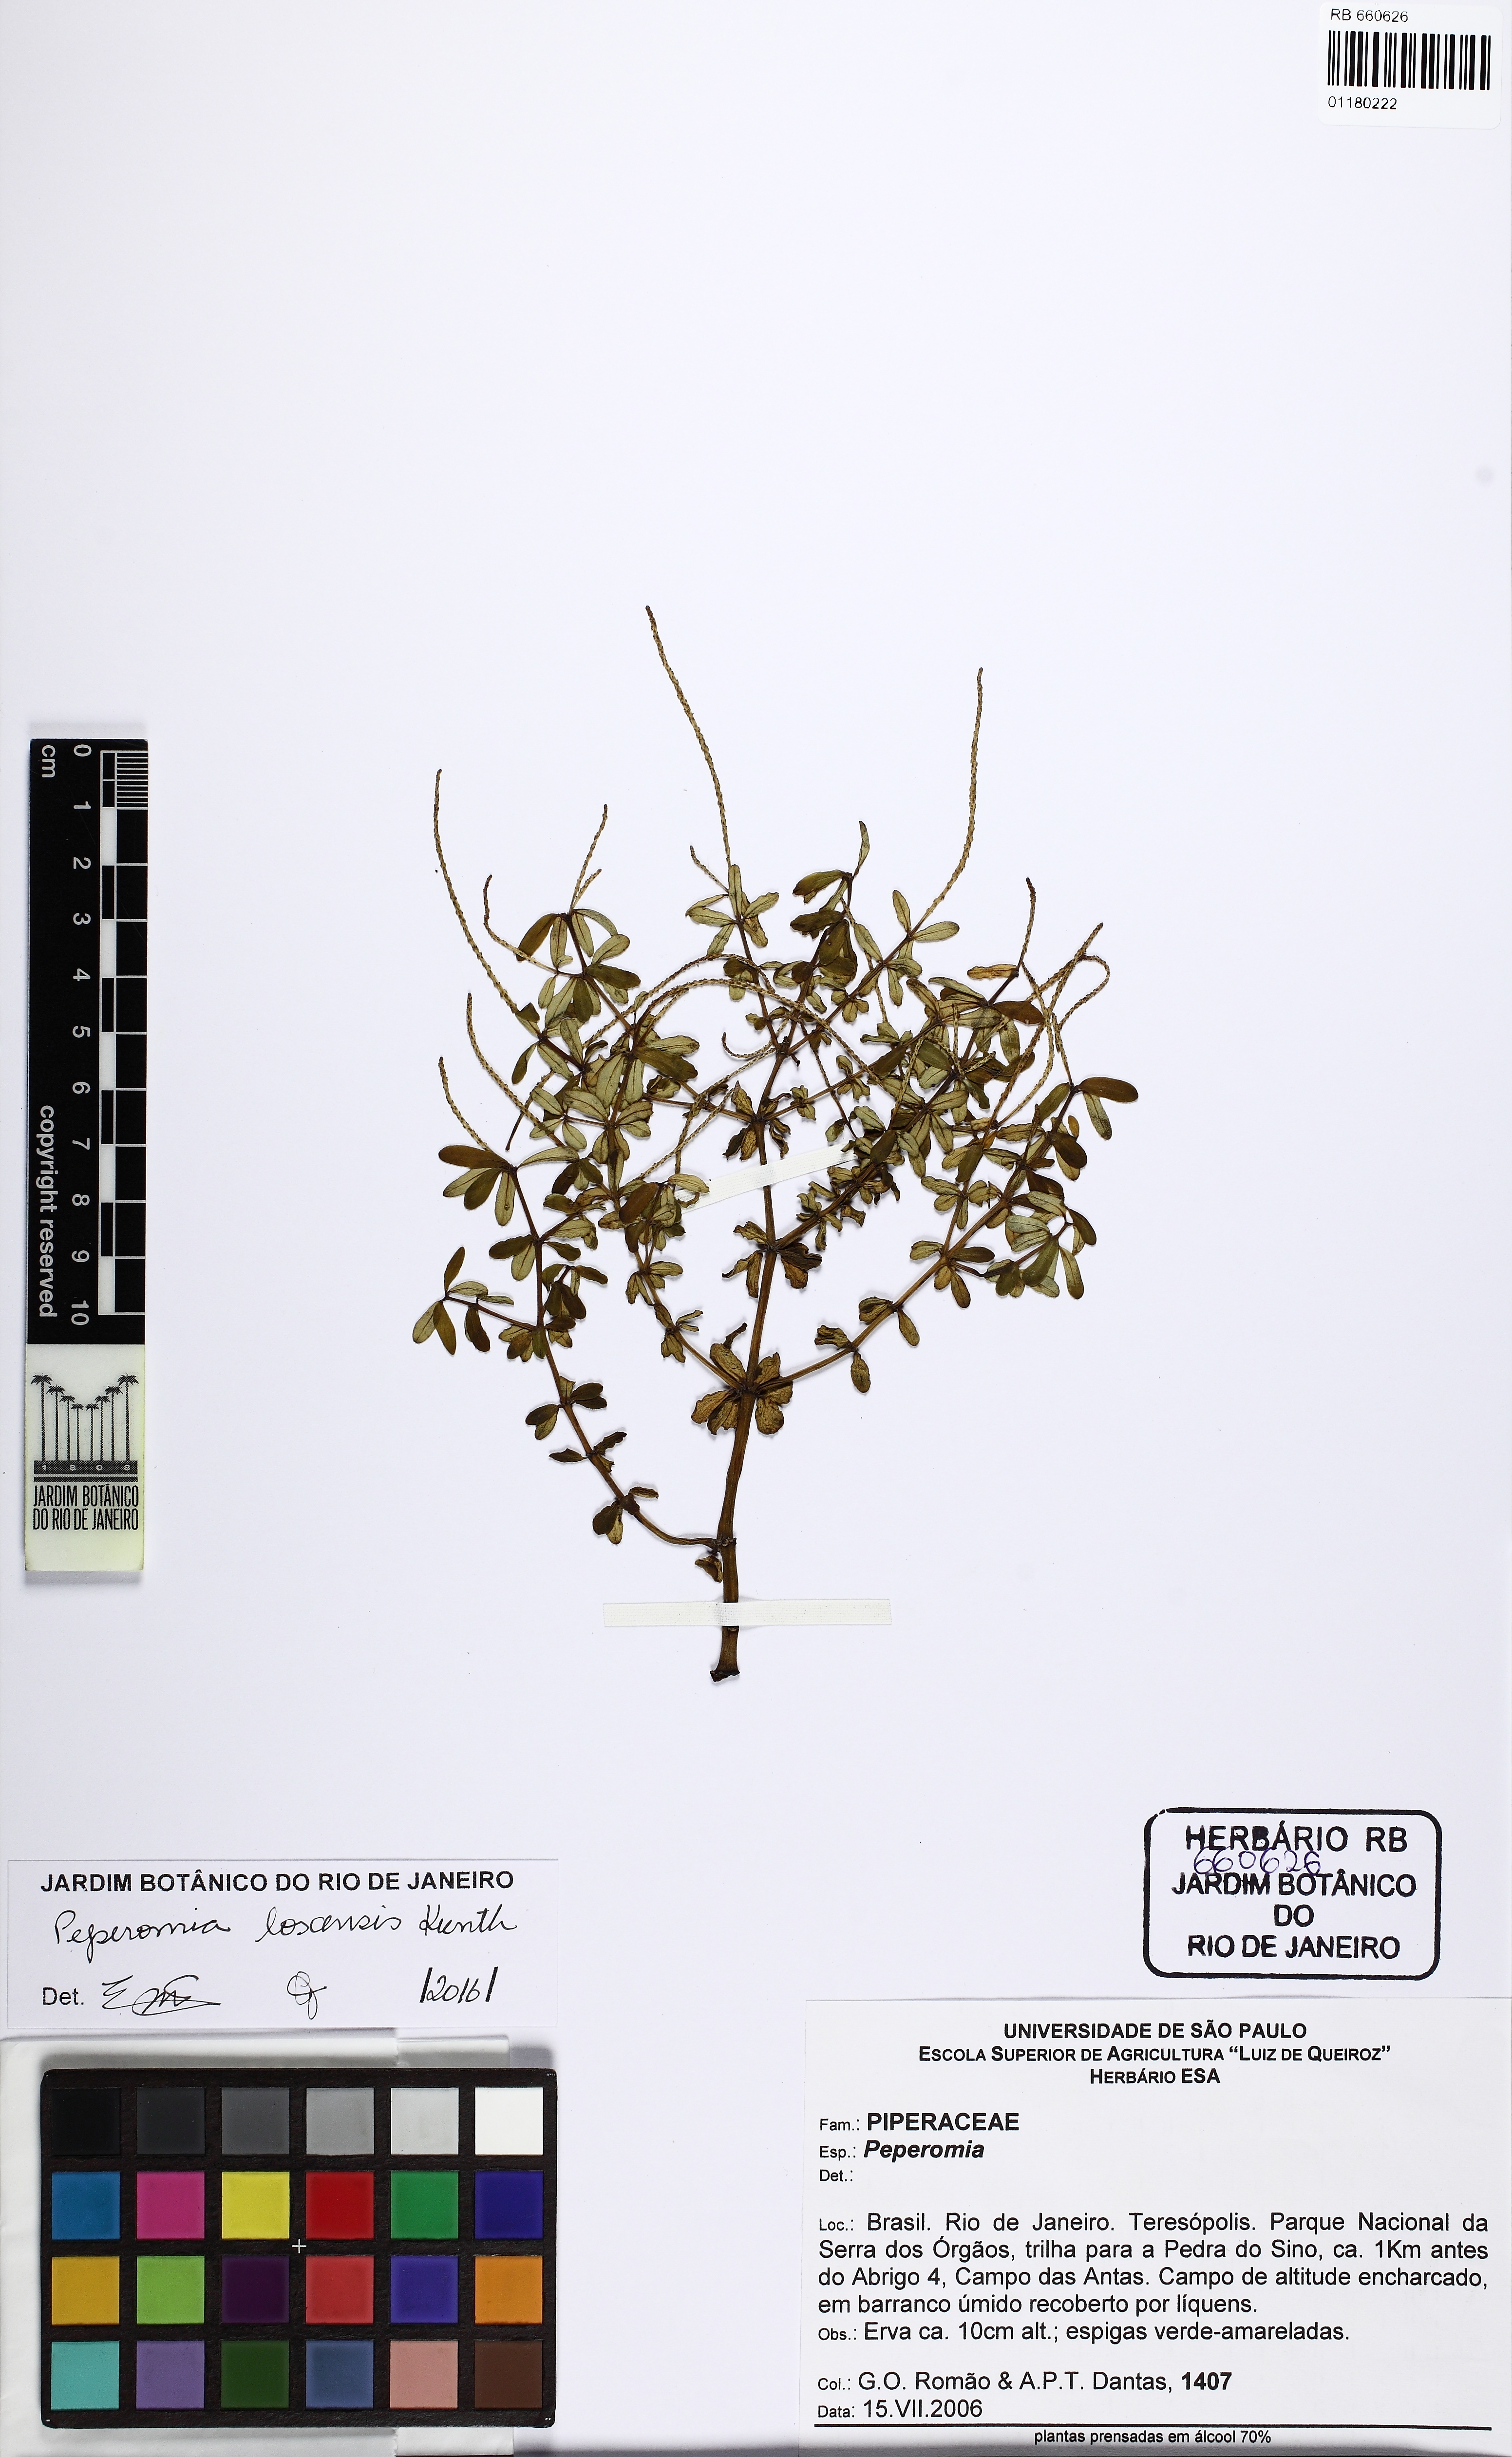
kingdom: Plantae
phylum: Tracheophyta
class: Magnoliopsida
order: Piperales
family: Piperaceae
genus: Peperomia
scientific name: Peperomia loxensis
